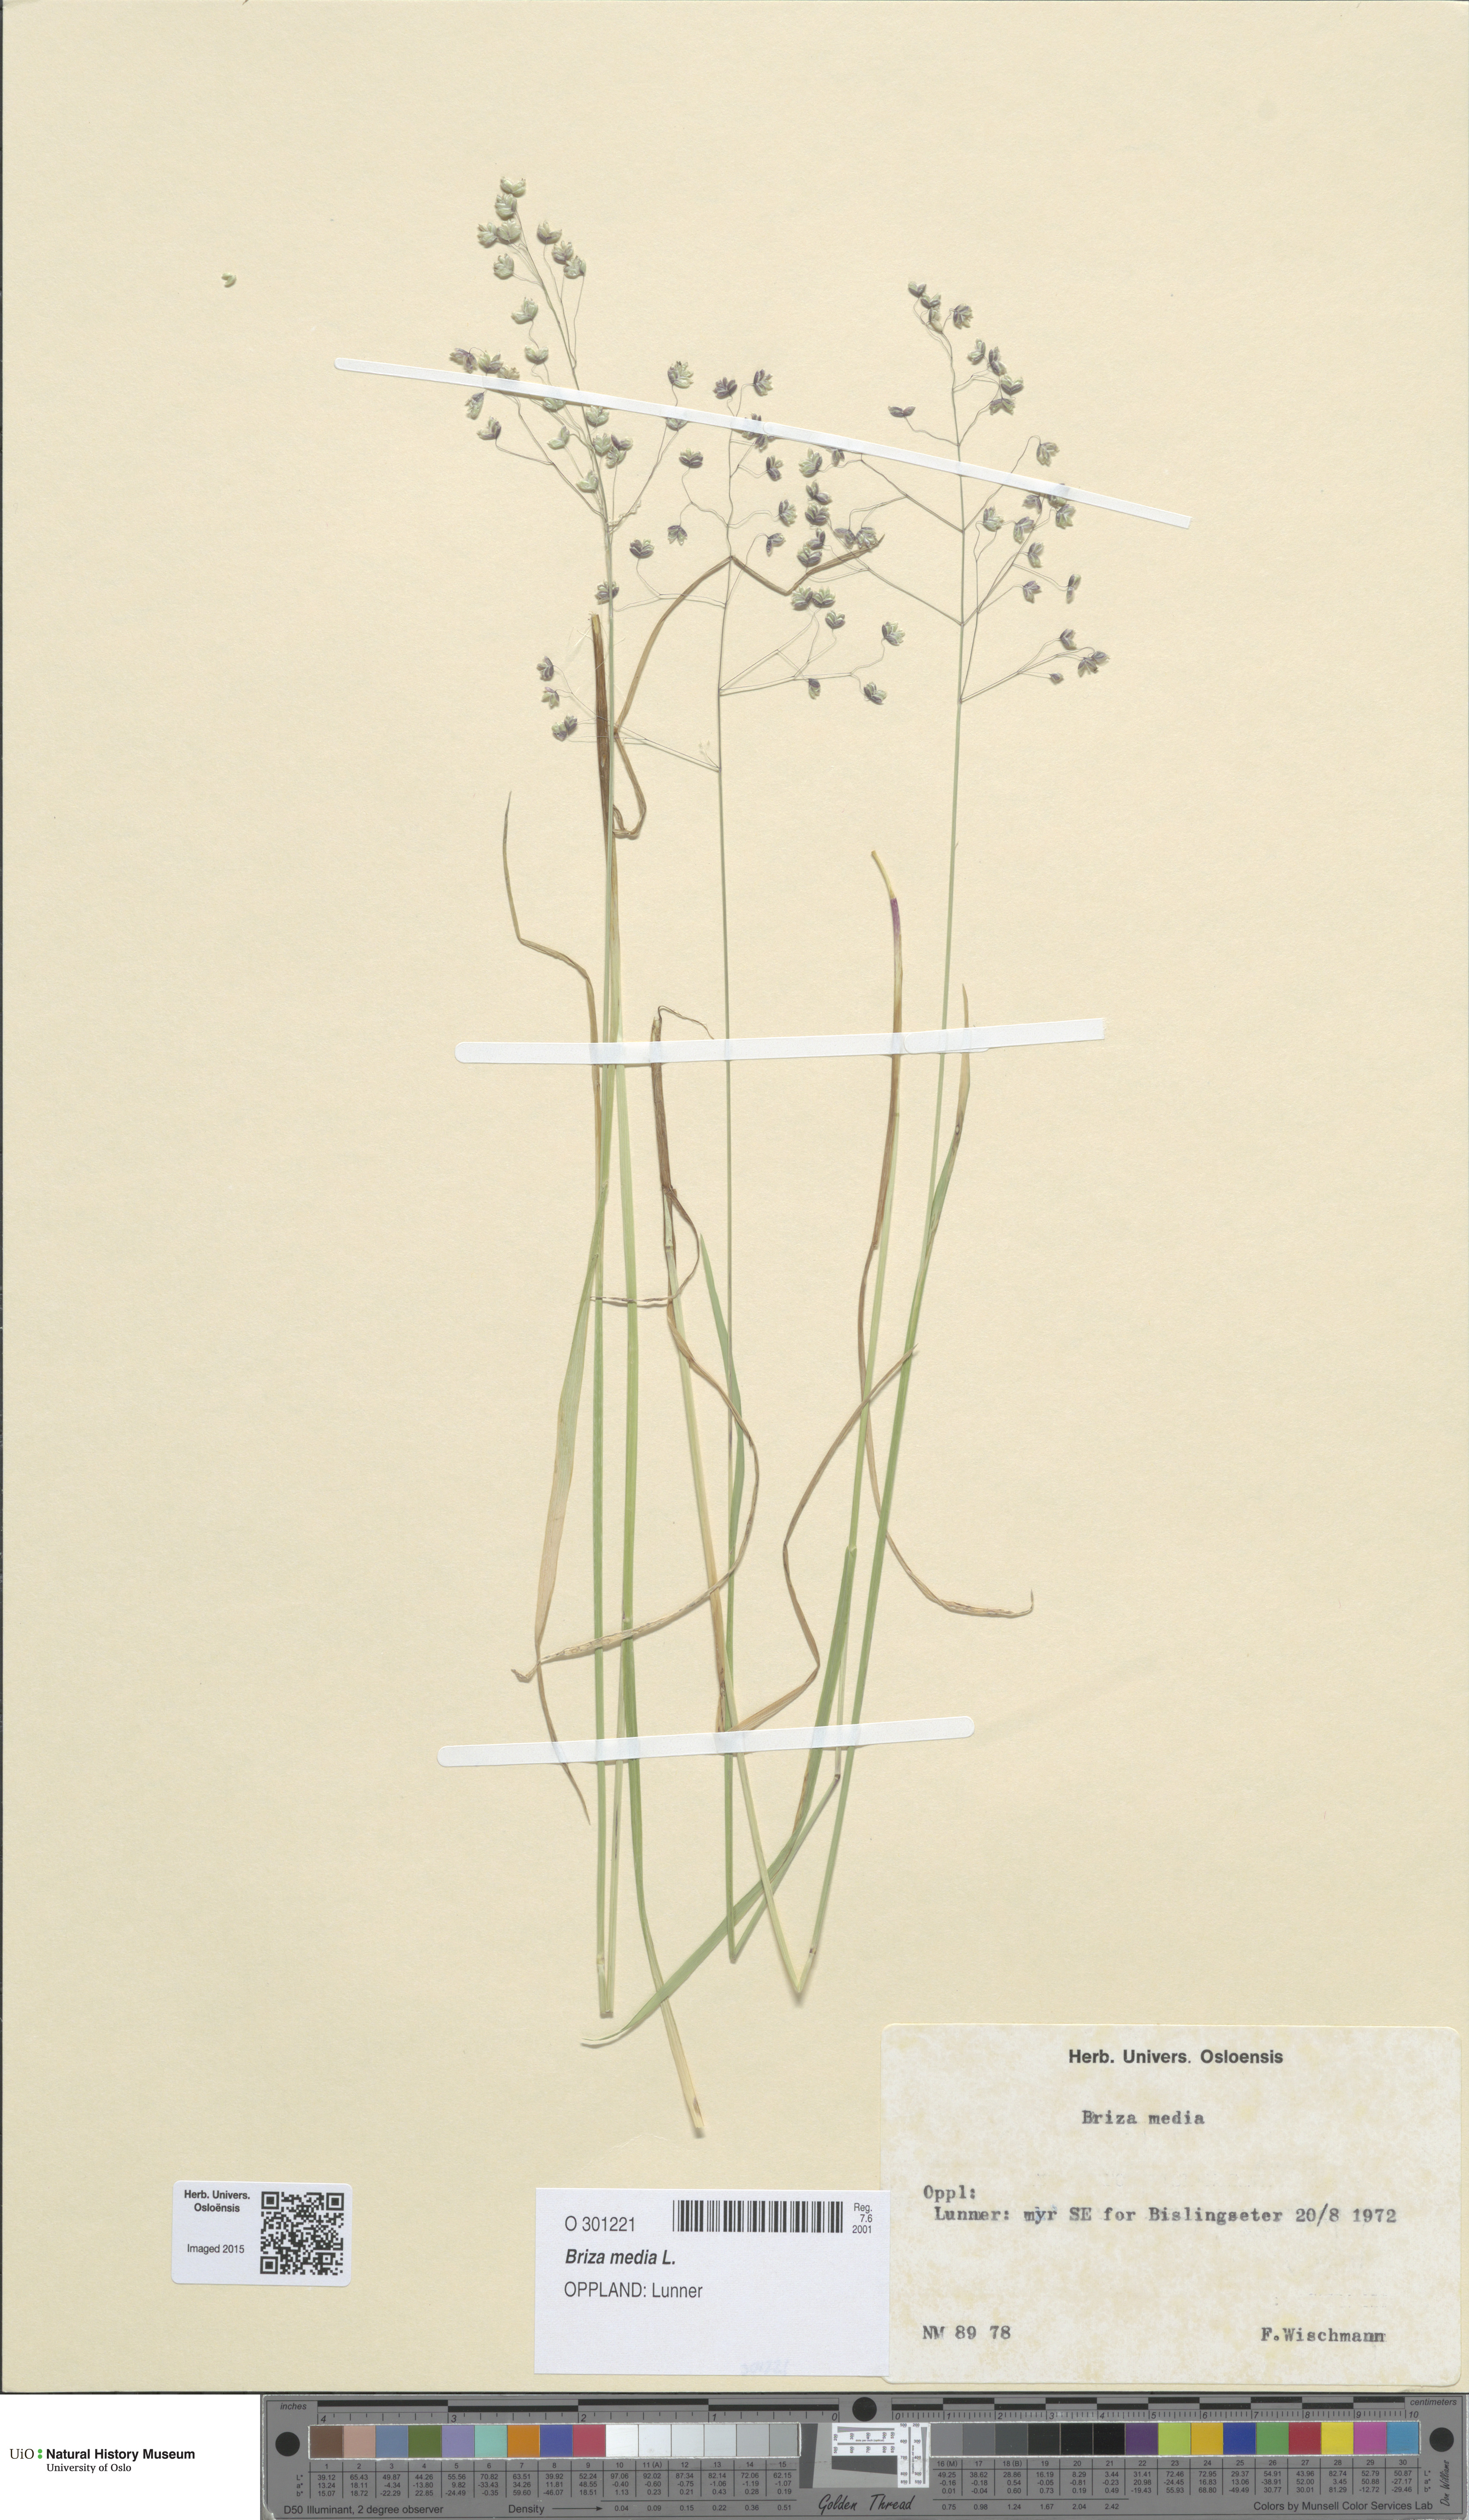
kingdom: Plantae
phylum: Tracheophyta
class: Liliopsida
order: Poales
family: Poaceae
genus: Briza
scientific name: Briza media
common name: Quaking grass
